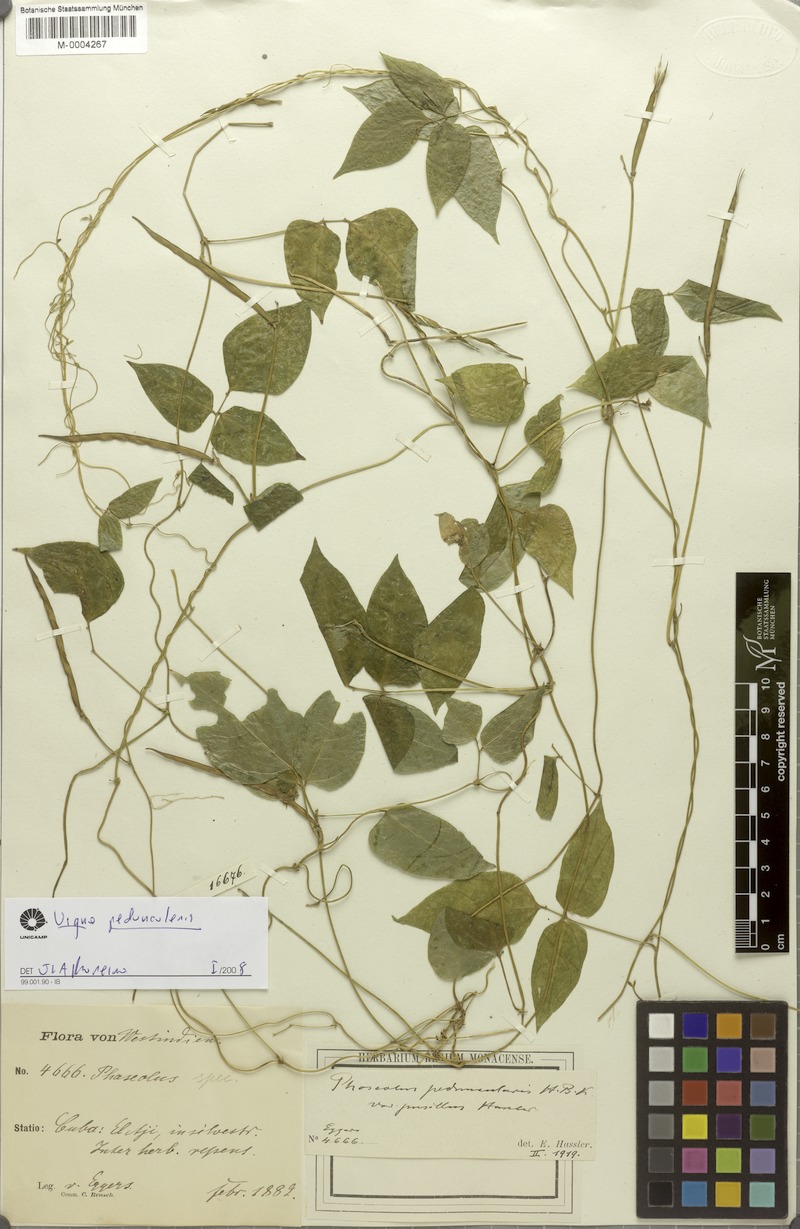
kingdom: Plantae
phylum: Tracheophyta
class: Magnoliopsida
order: Fabales
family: Fabaceae
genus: Ancistrotropis
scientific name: Ancistrotropis peduncularis
